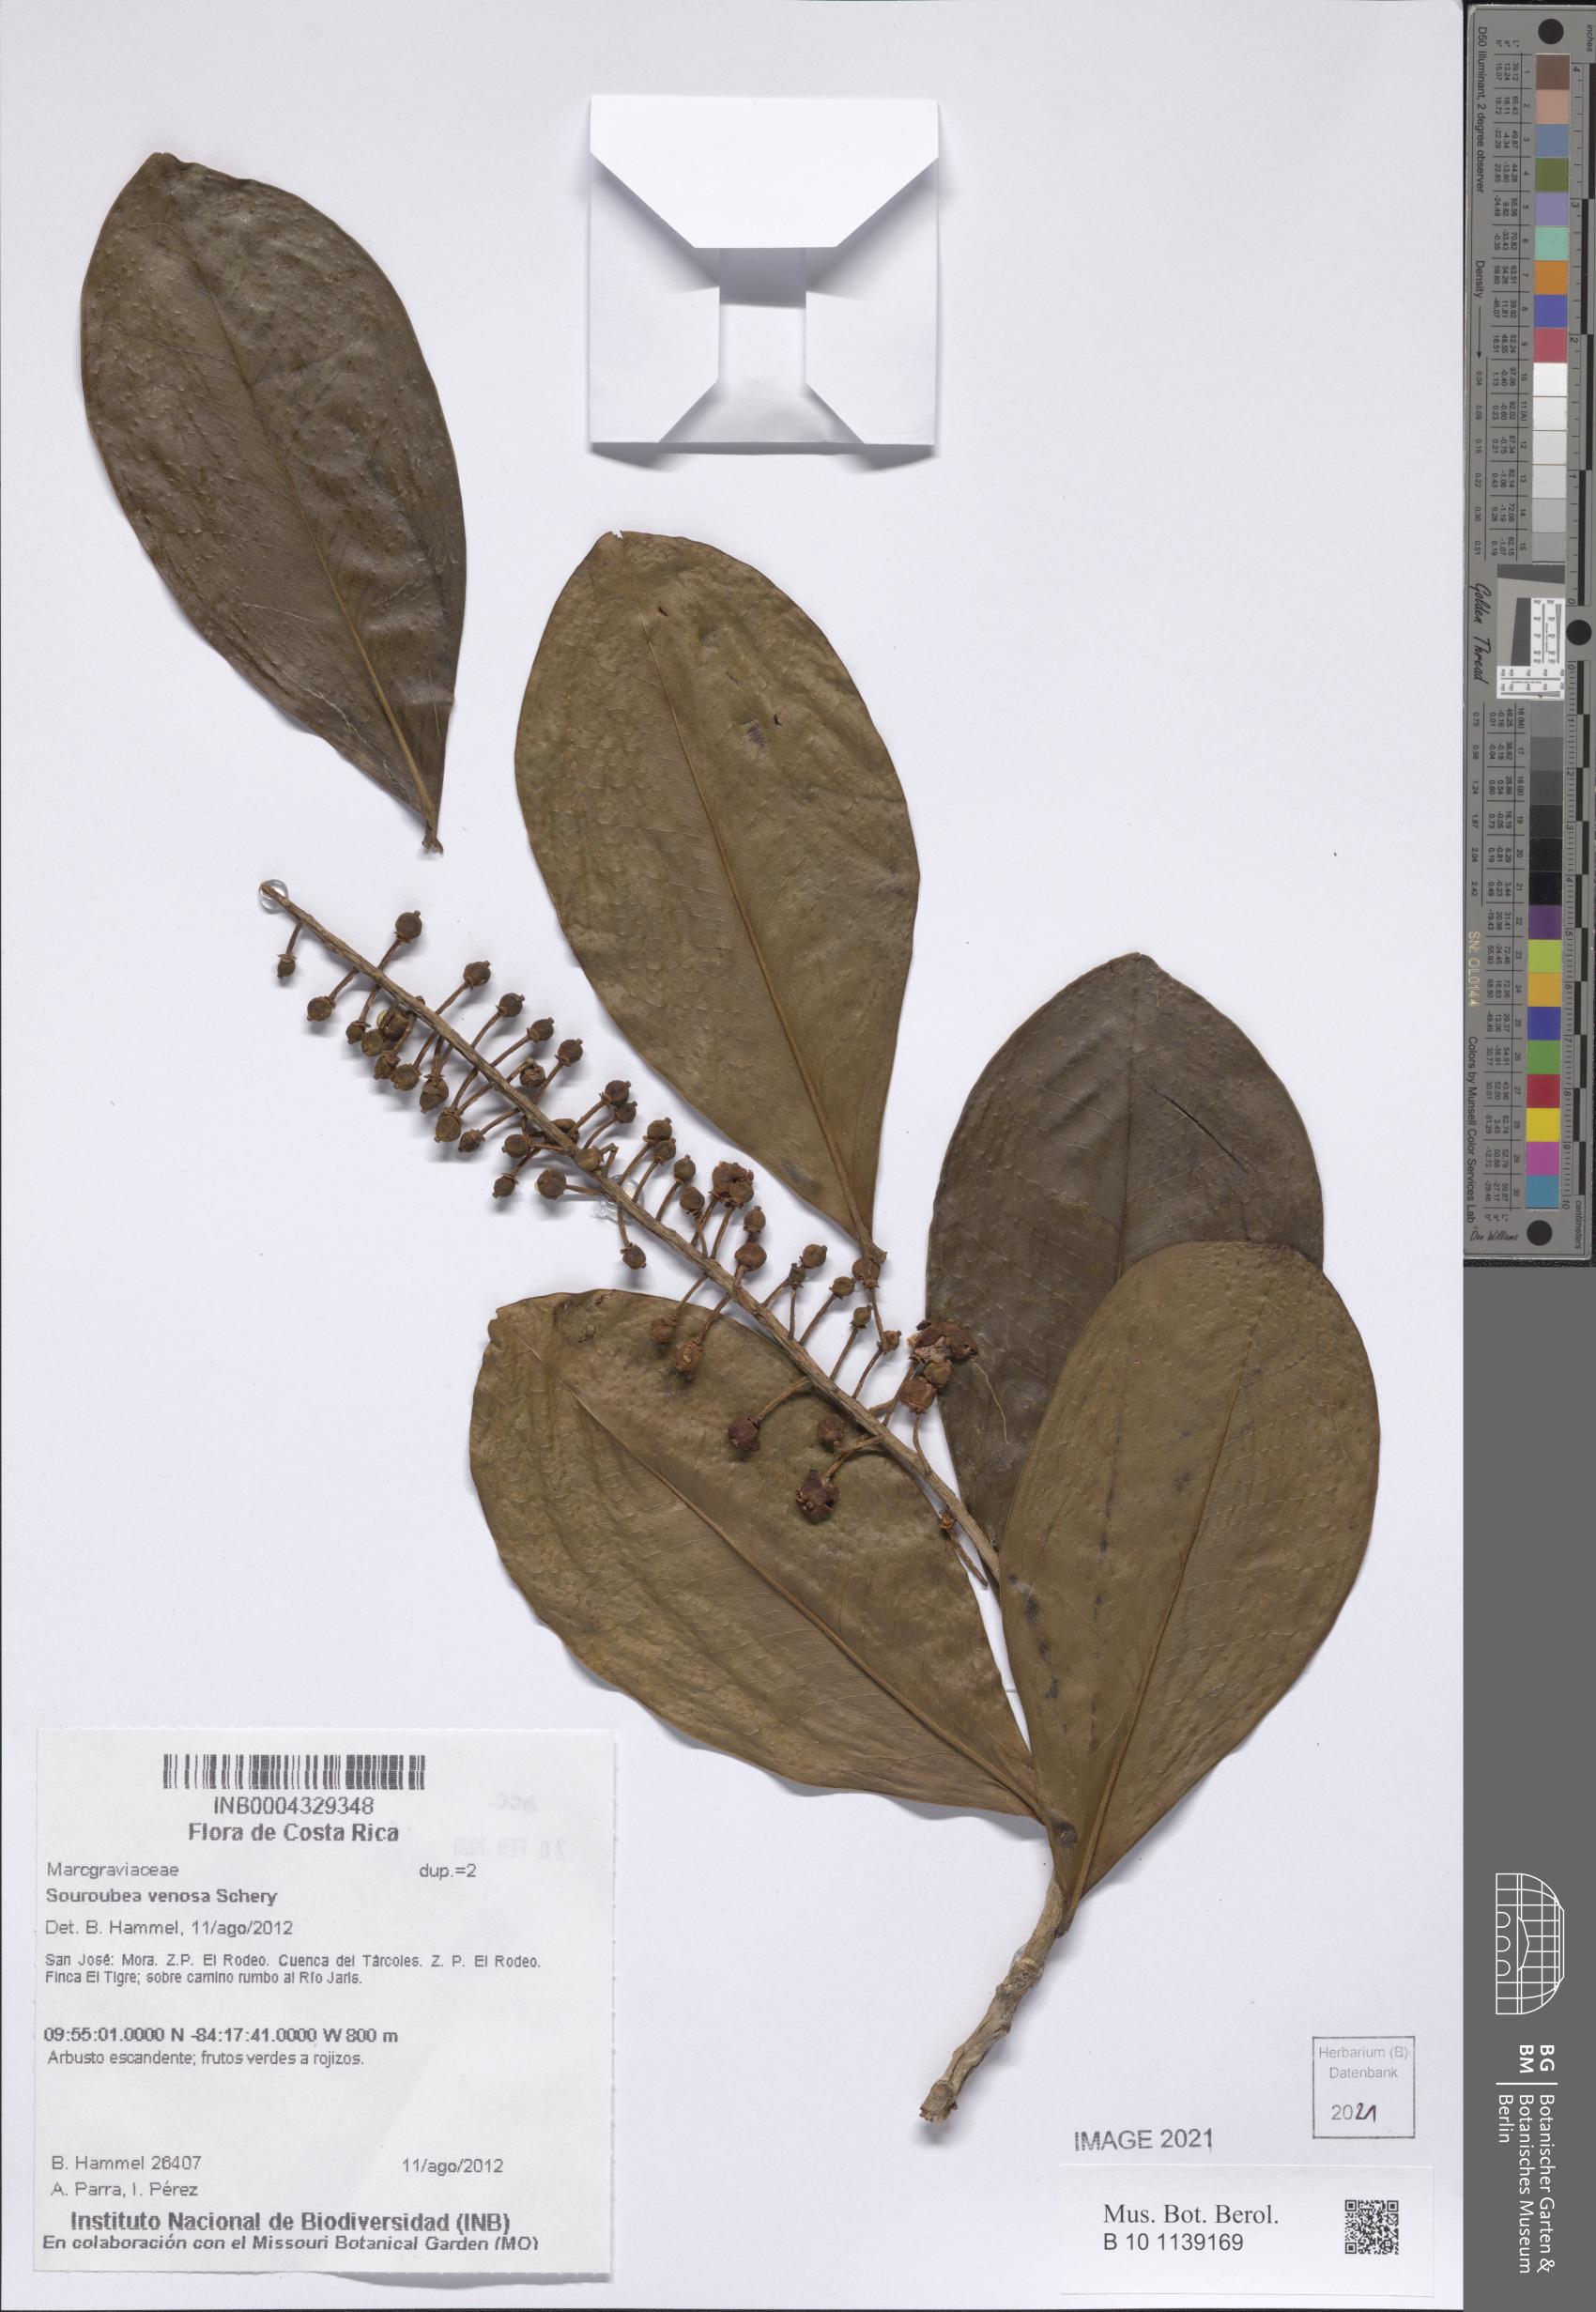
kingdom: Plantae
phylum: Tracheophyta
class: Magnoliopsida
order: Ericales
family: Marcgraviaceae
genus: Souroubea
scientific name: Souroubea venosa
